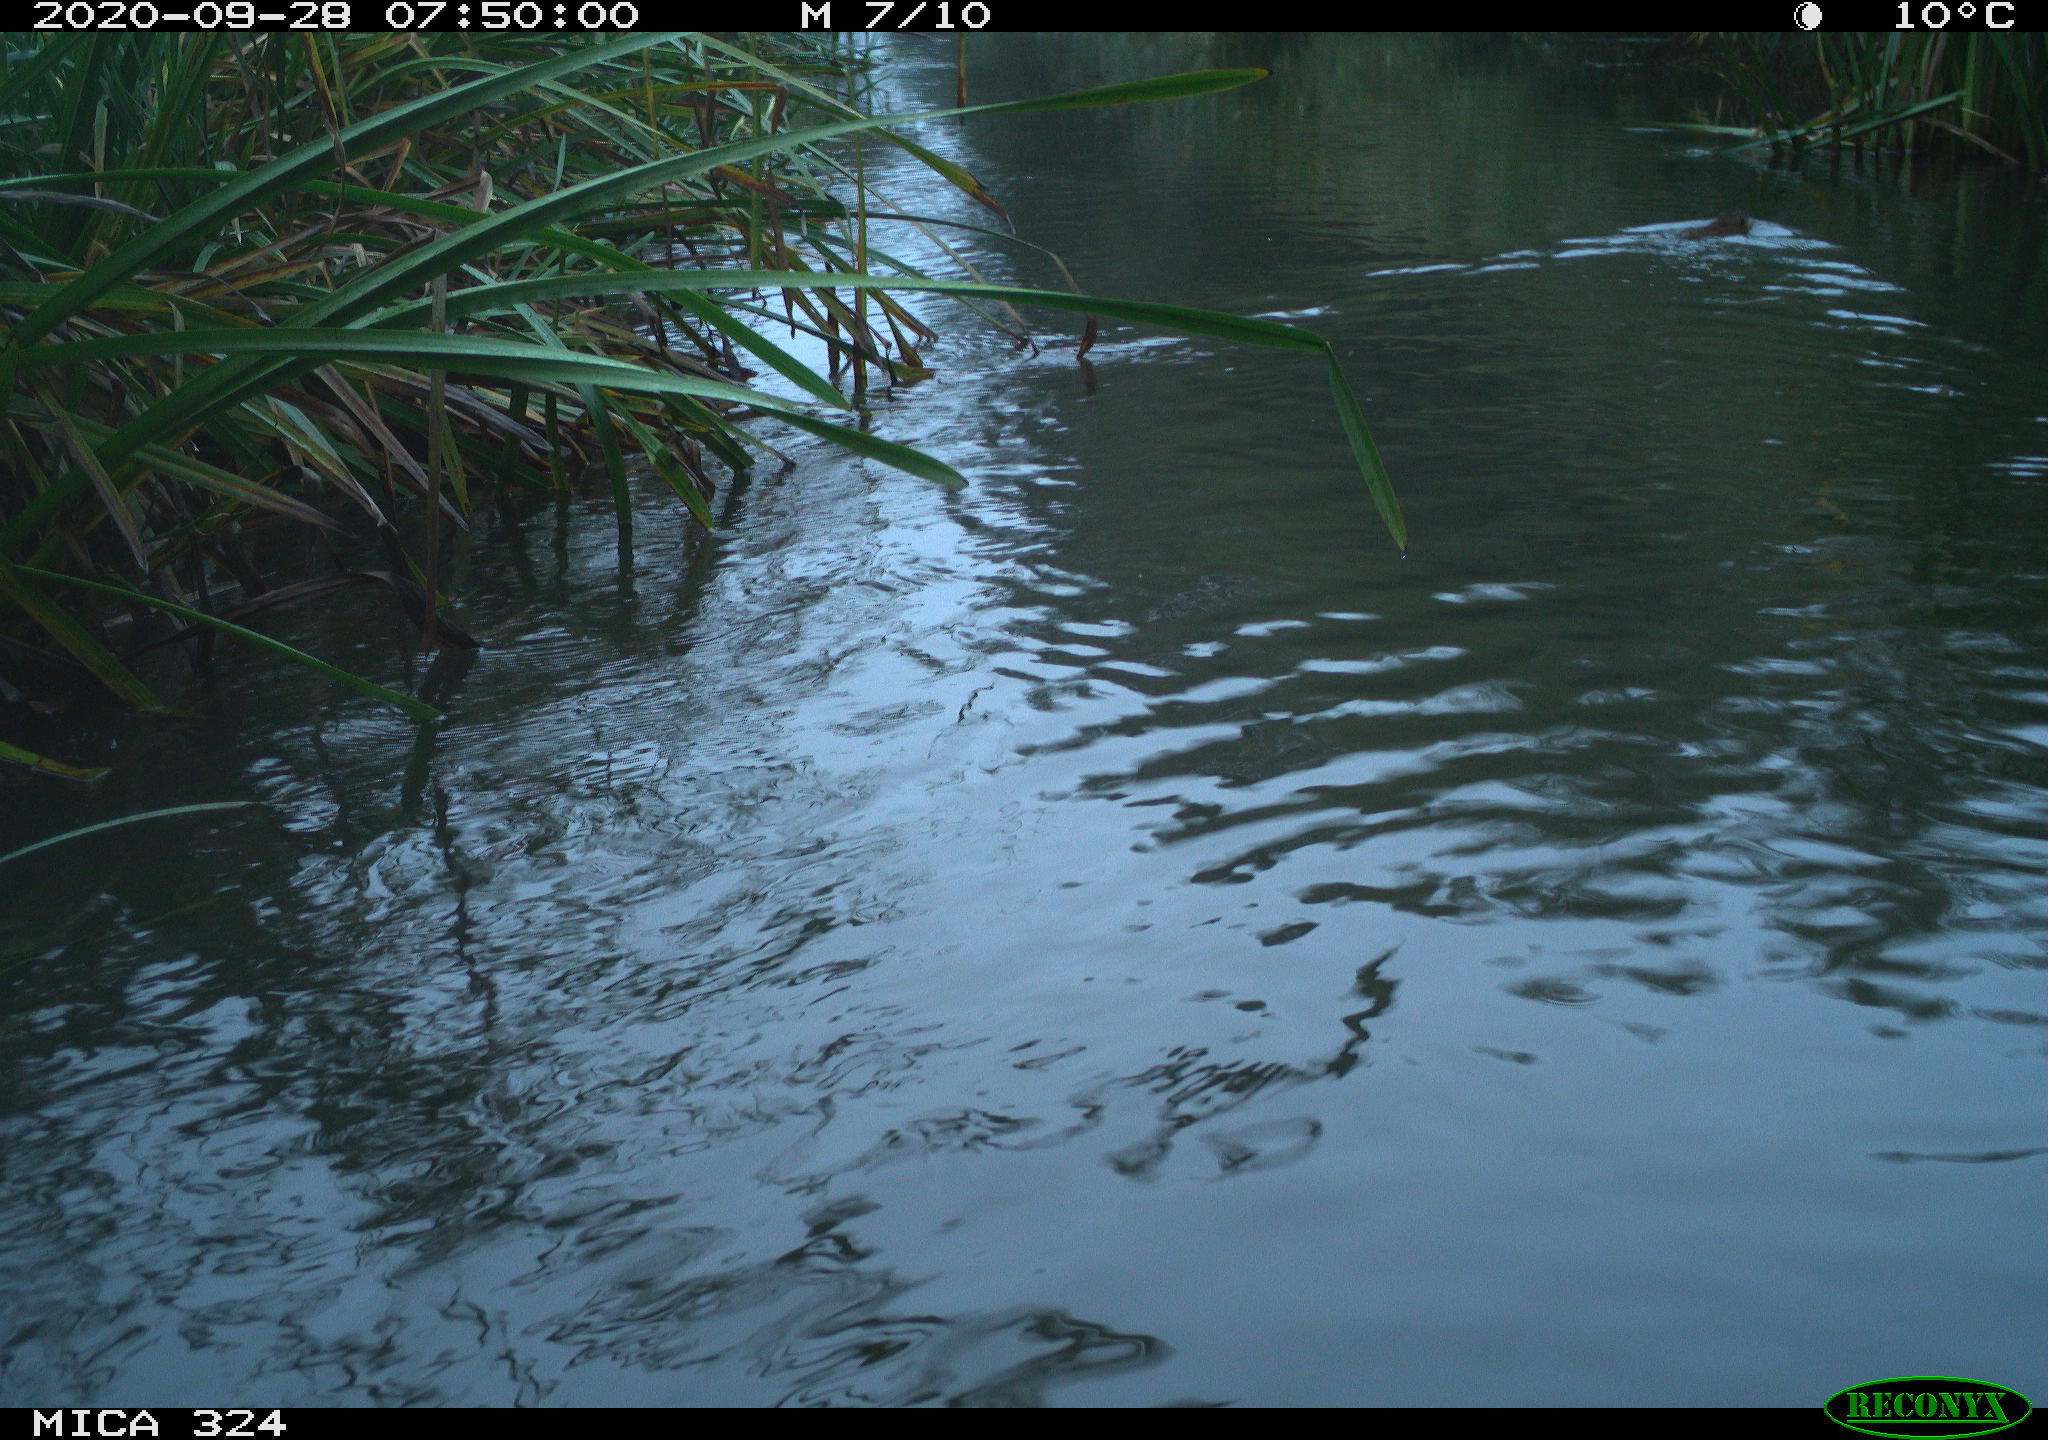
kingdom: Animalia
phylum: Chordata
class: Mammalia
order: Rodentia
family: Cricetidae
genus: Ondatra
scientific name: Ondatra zibethicus
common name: Muskrat
